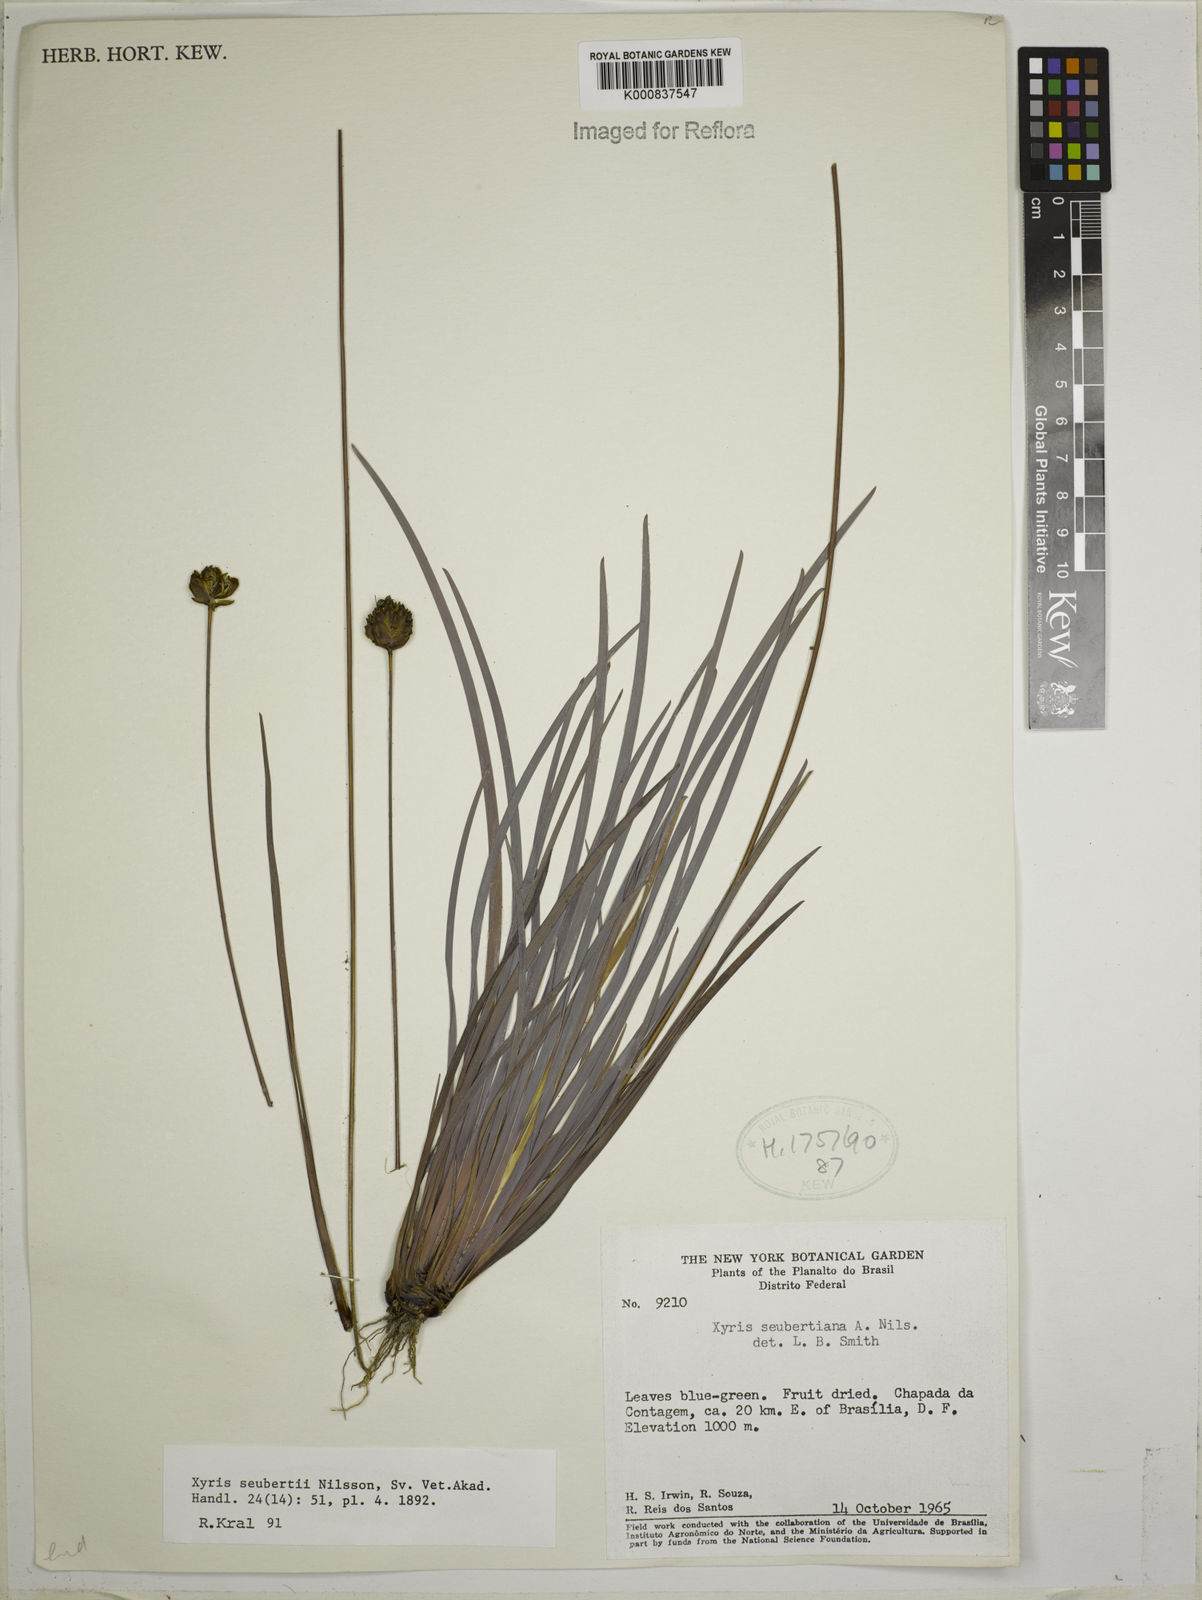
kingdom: Plantae
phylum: Tracheophyta
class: Liliopsida
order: Poales
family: Xyridaceae
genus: Xyris
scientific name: Xyris seubertii
